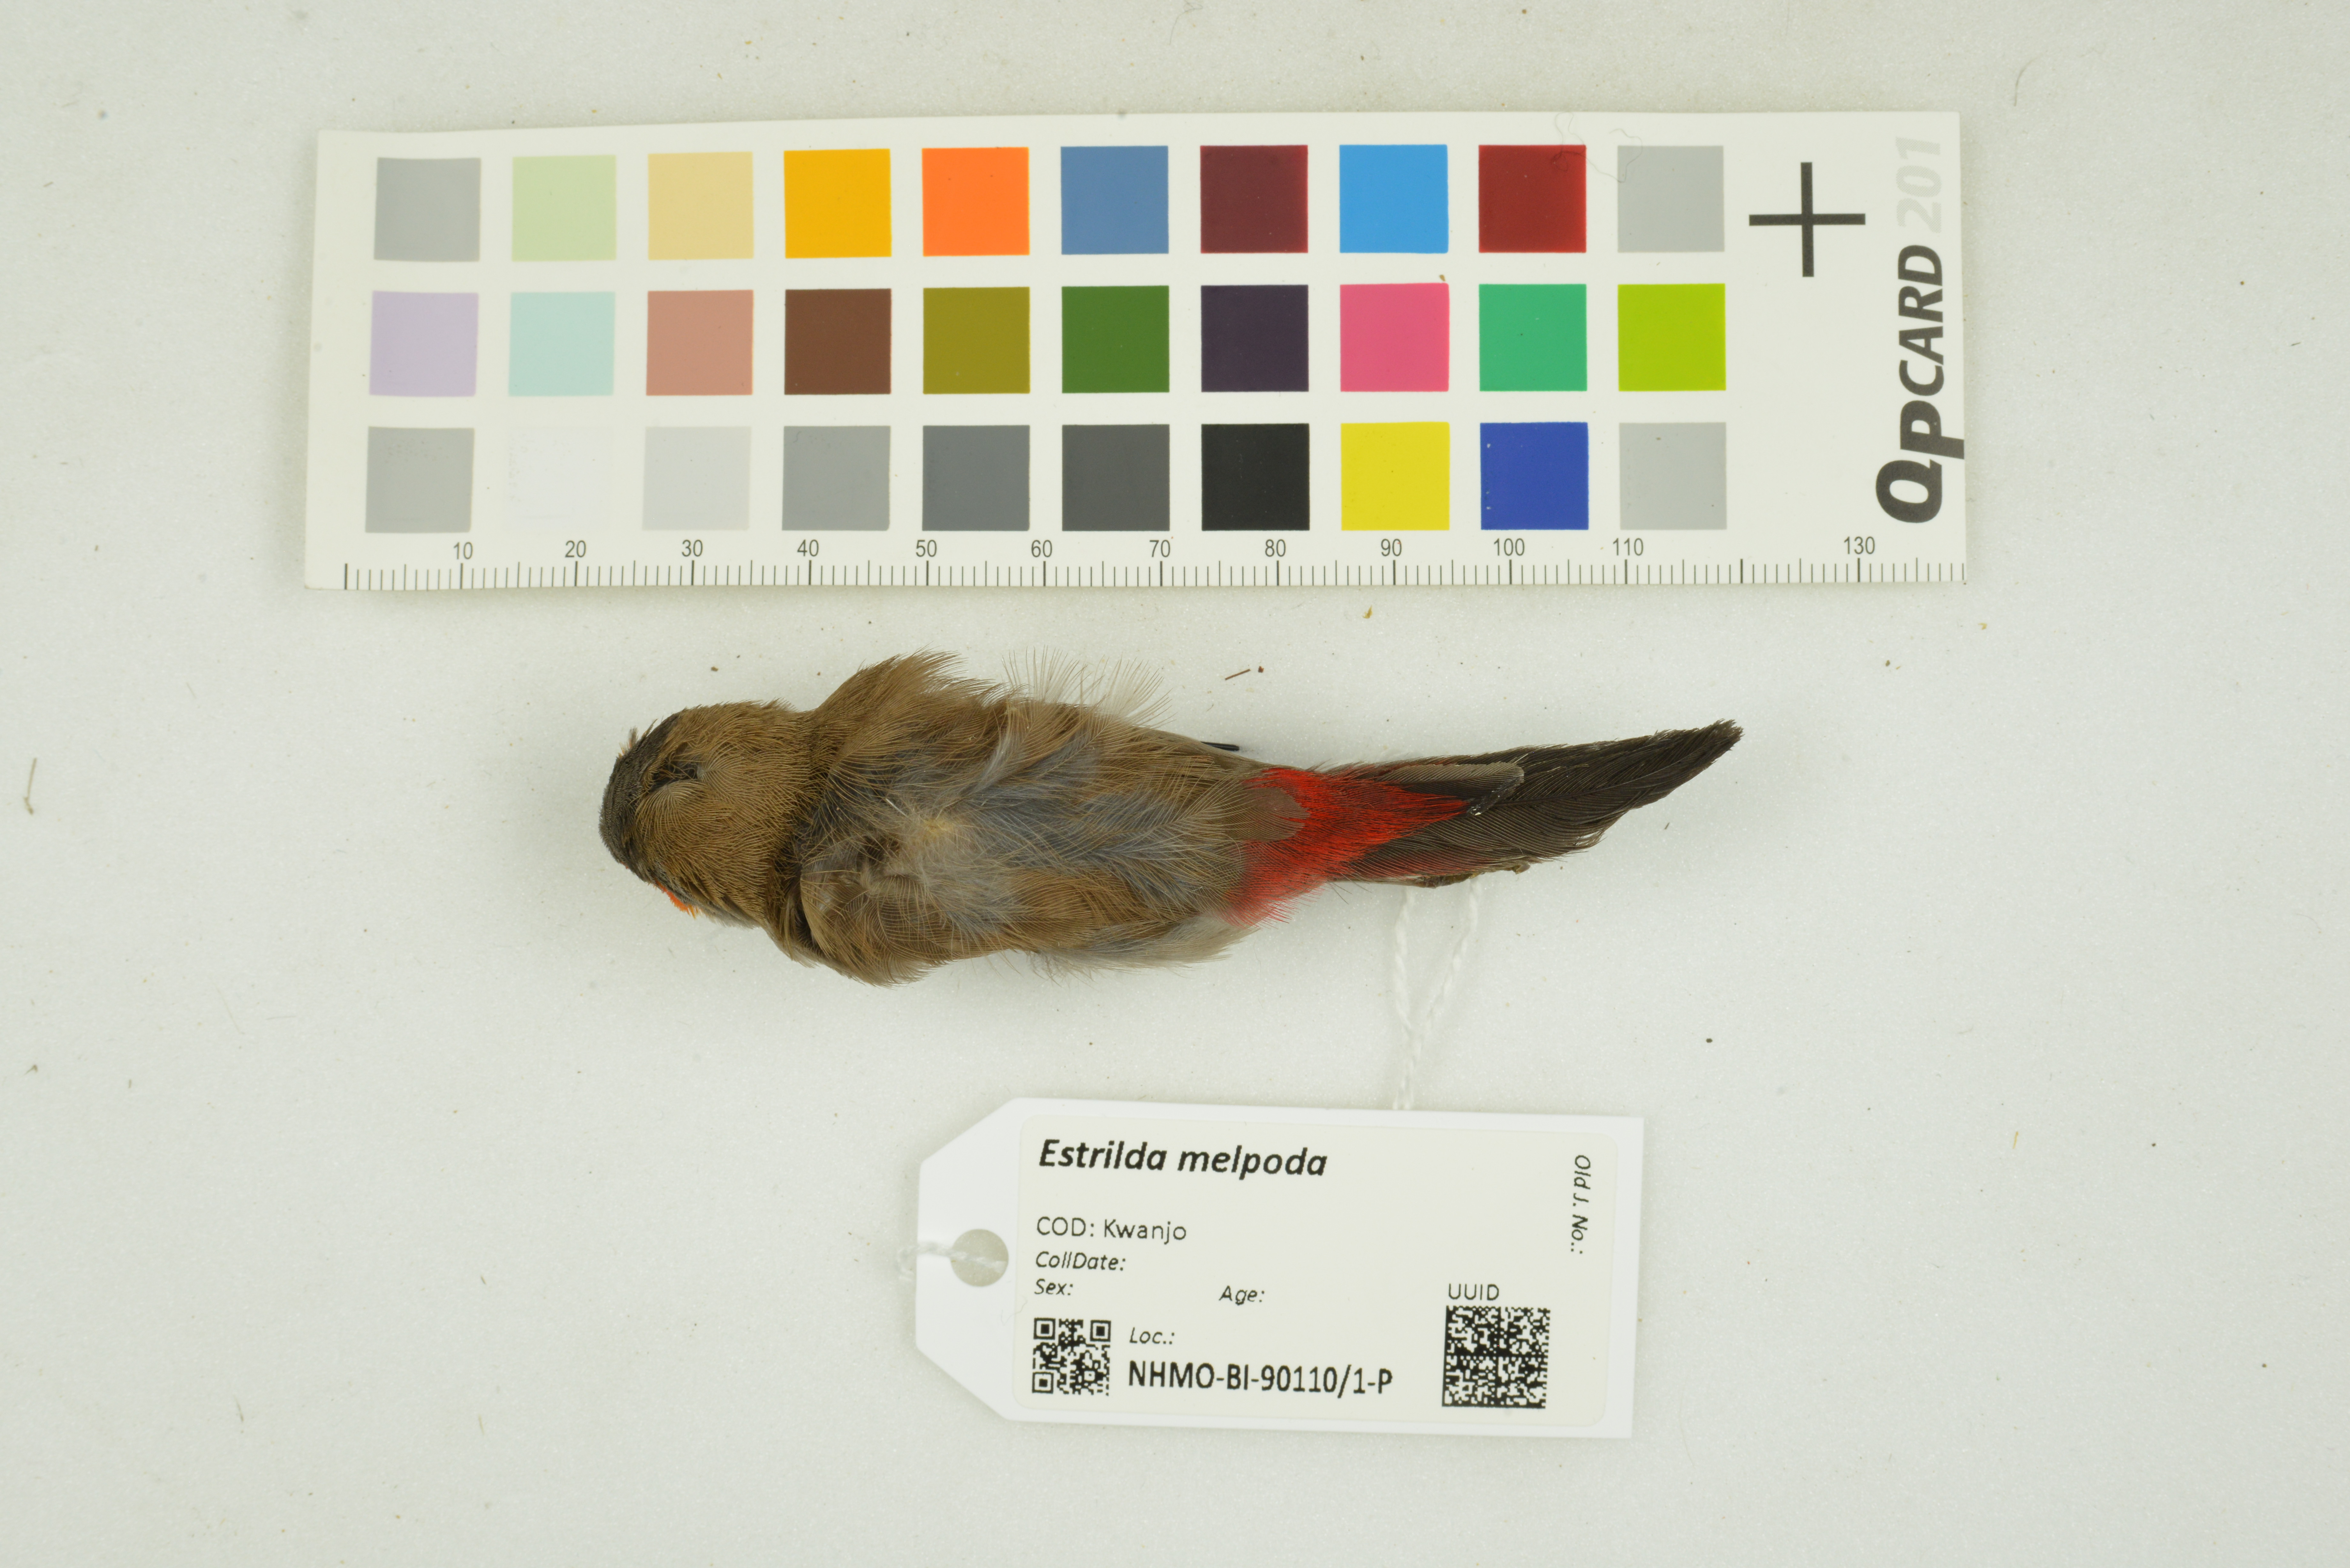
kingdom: Animalia
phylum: Chordata
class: Aves
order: Passeriformes
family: Estrildidae
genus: Estrilda
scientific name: Estrilda melpoda
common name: Orange-cheeked waxbill
